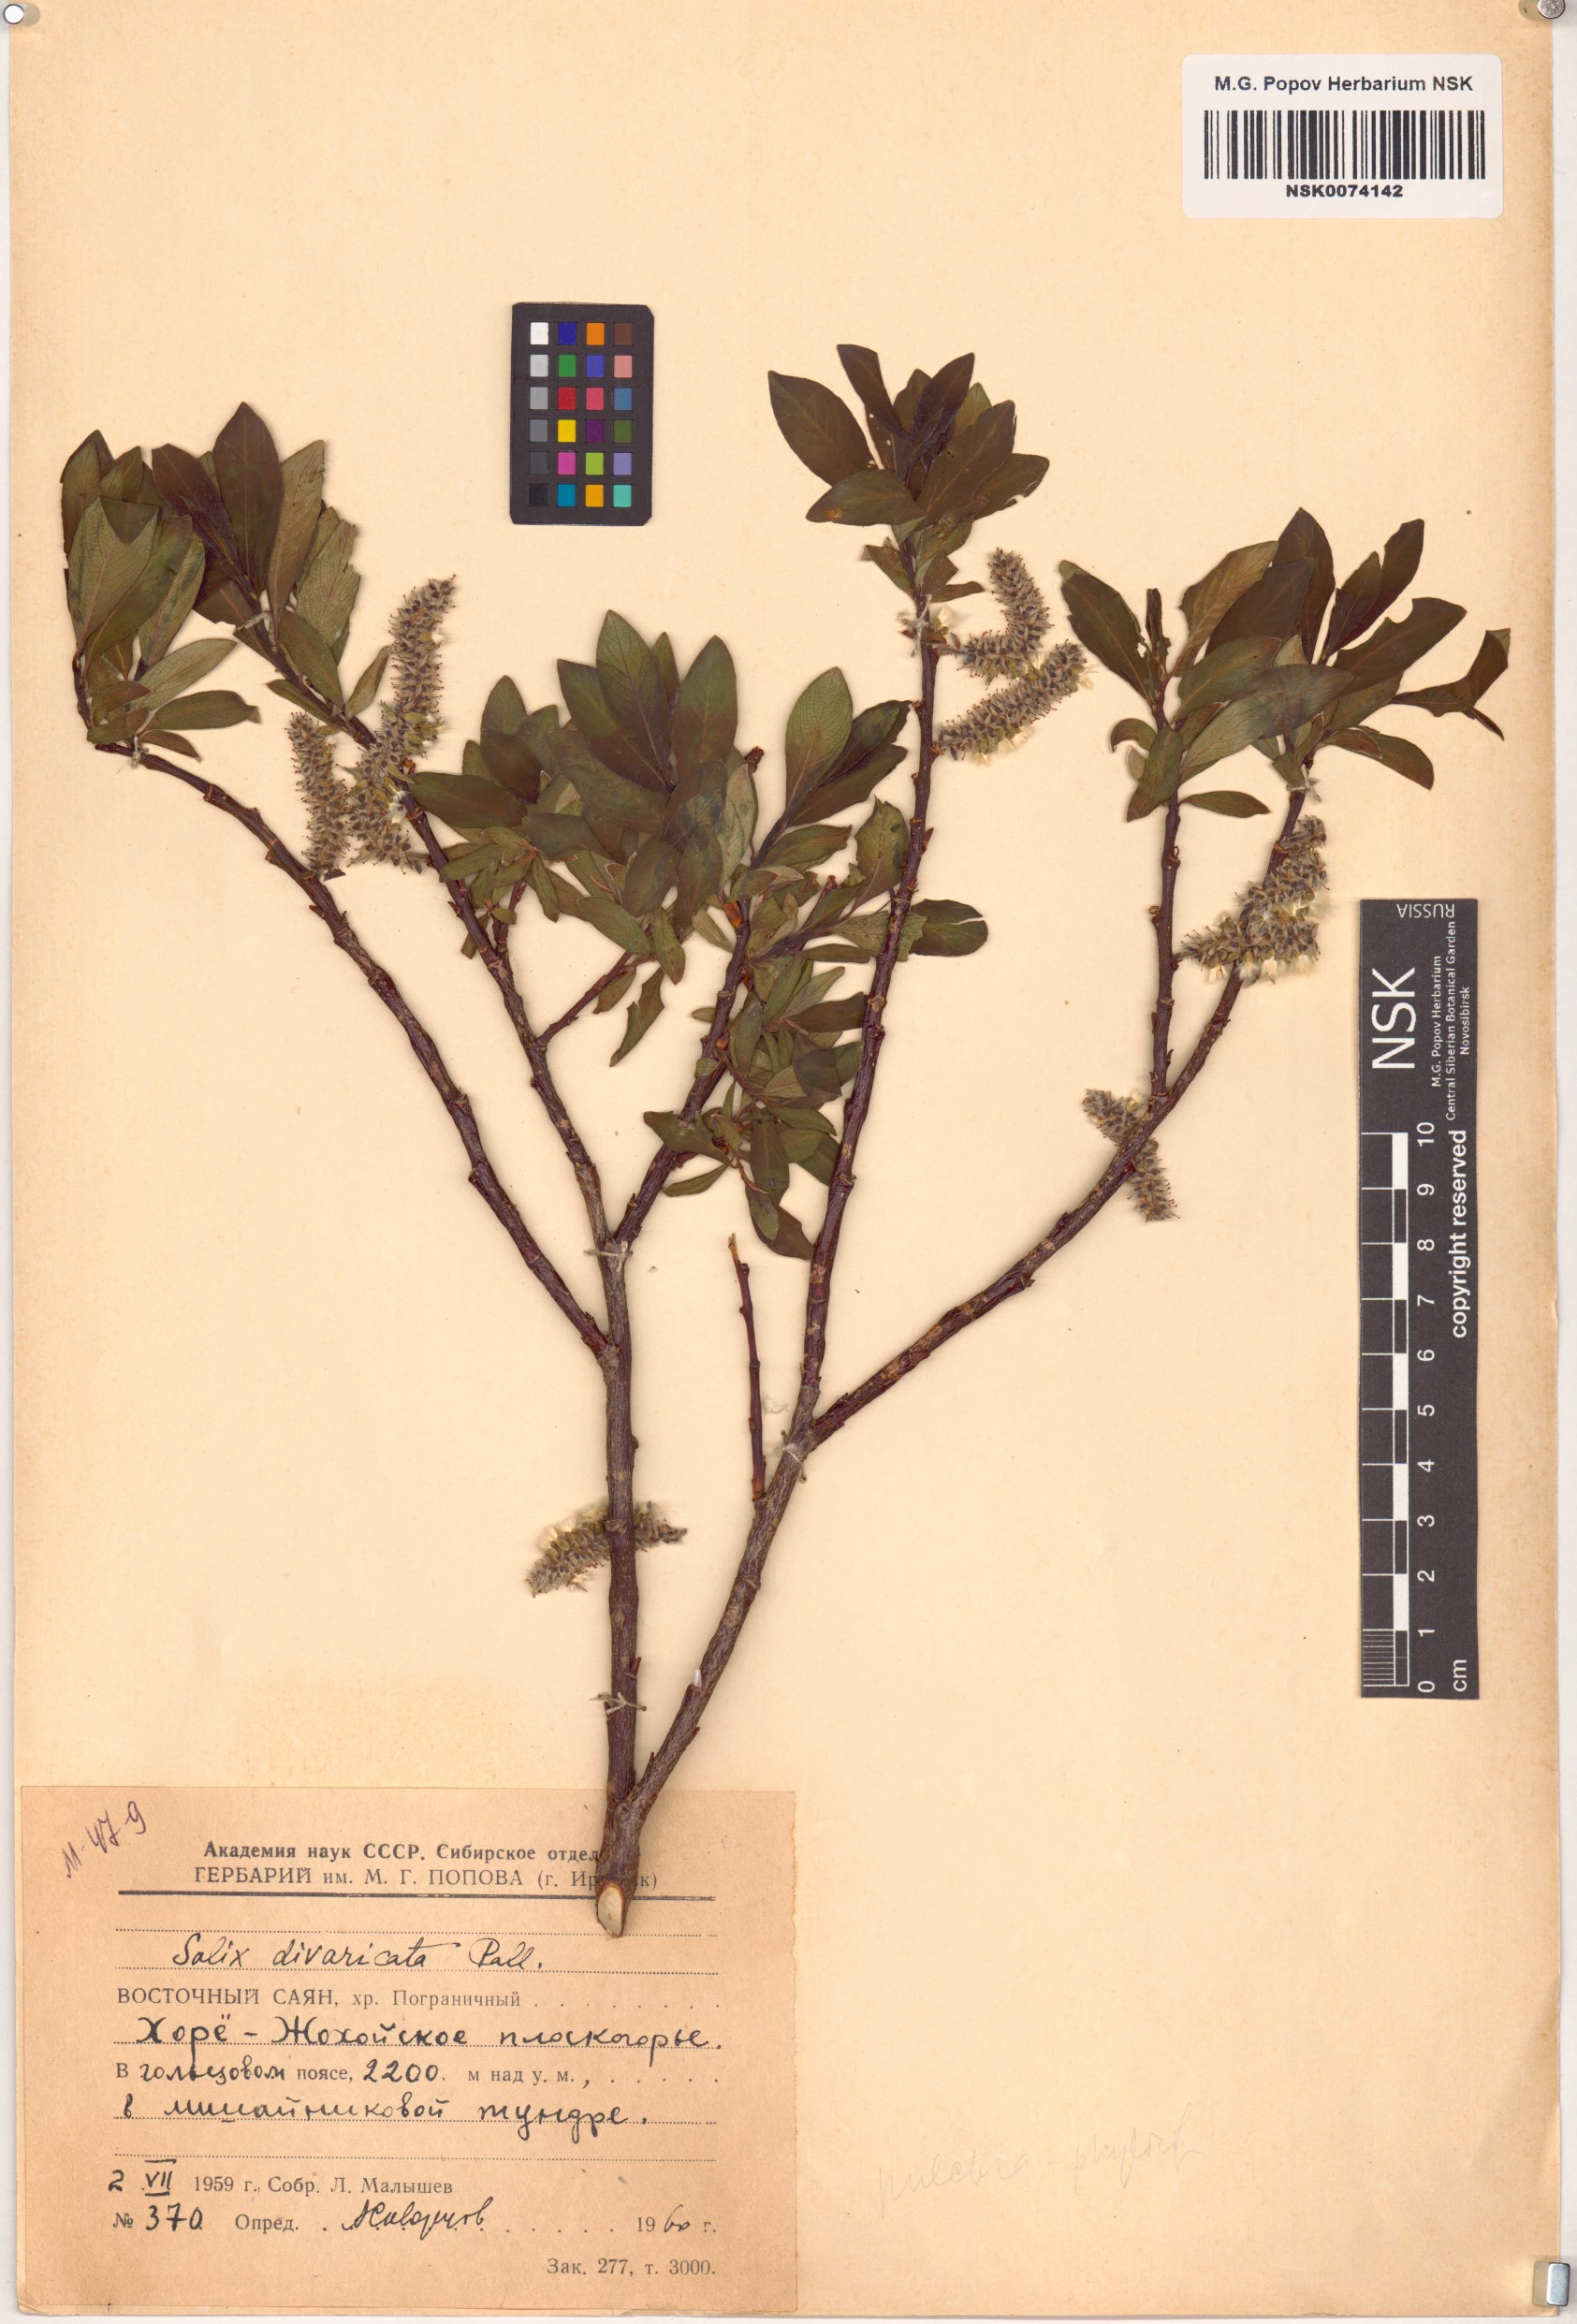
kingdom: Plantae
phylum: Tracheophyta
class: Magnoliopsida
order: Malpighiales
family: Salicaceae
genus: Salix
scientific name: Salix divaricata
